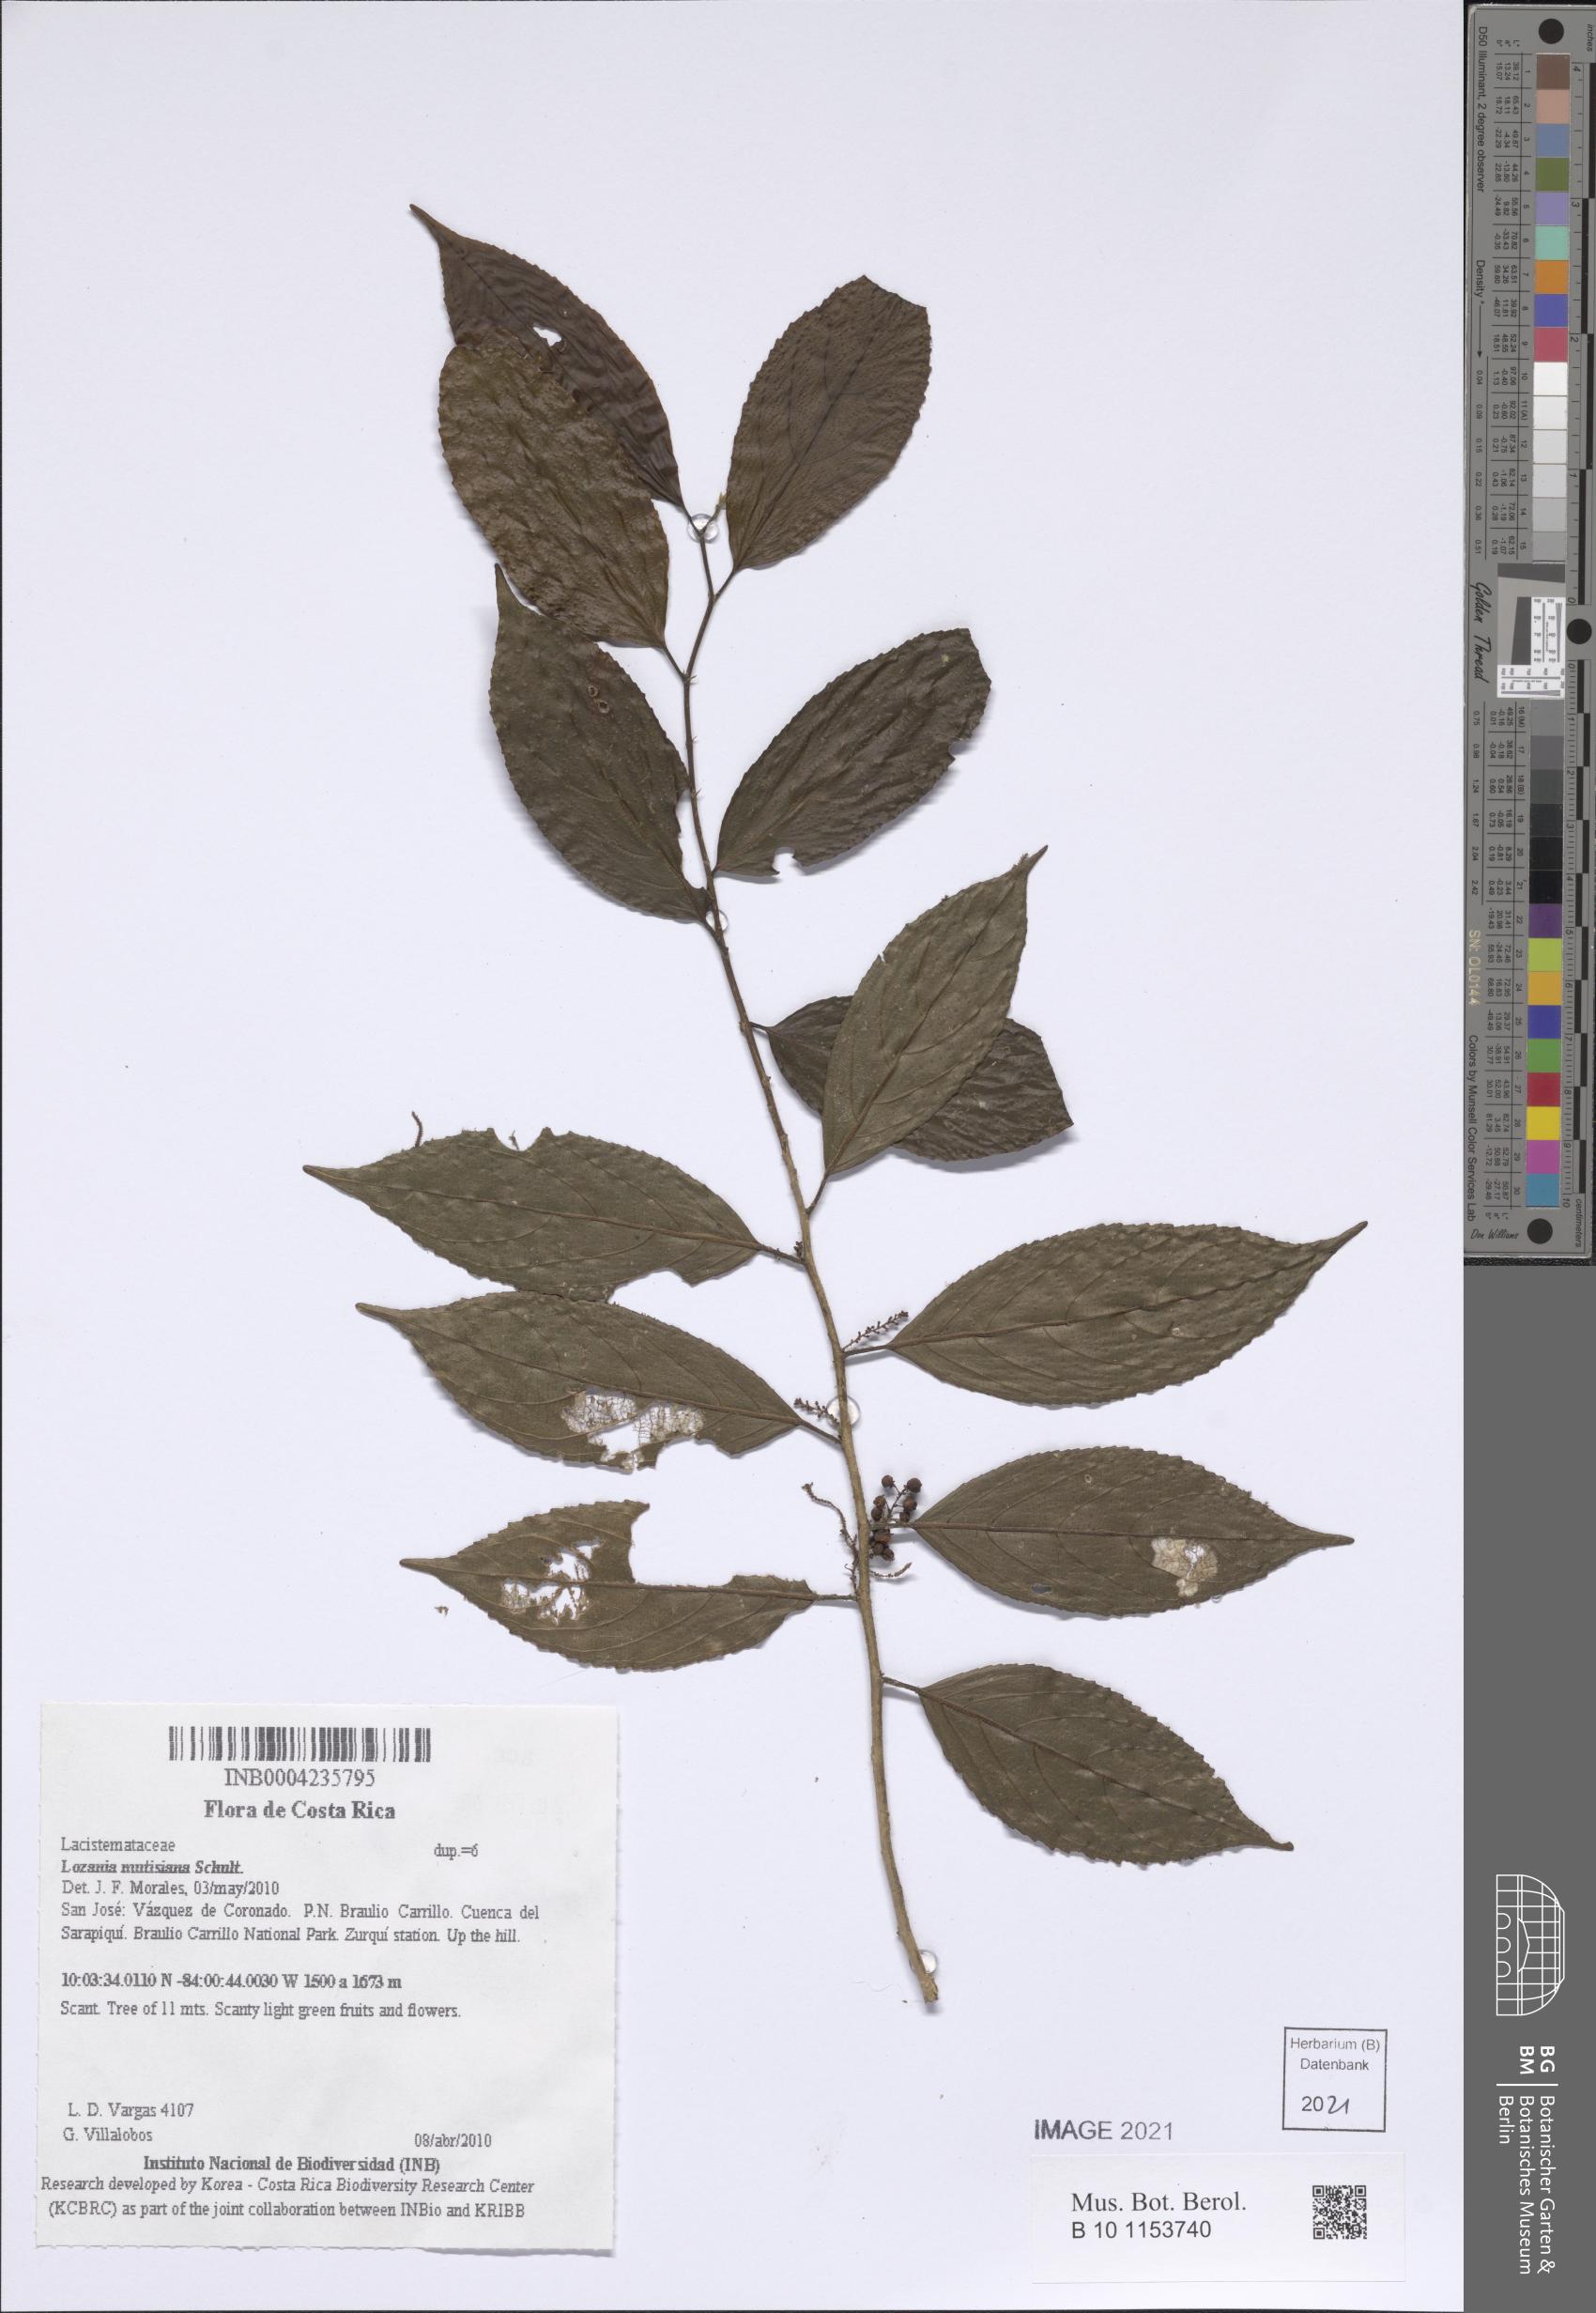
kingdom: Plantae
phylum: Tracheophyta
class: Magnoliopsida
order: Malpighiales
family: Lacistemataceae
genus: Lozania
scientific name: Lozania mutisiana
